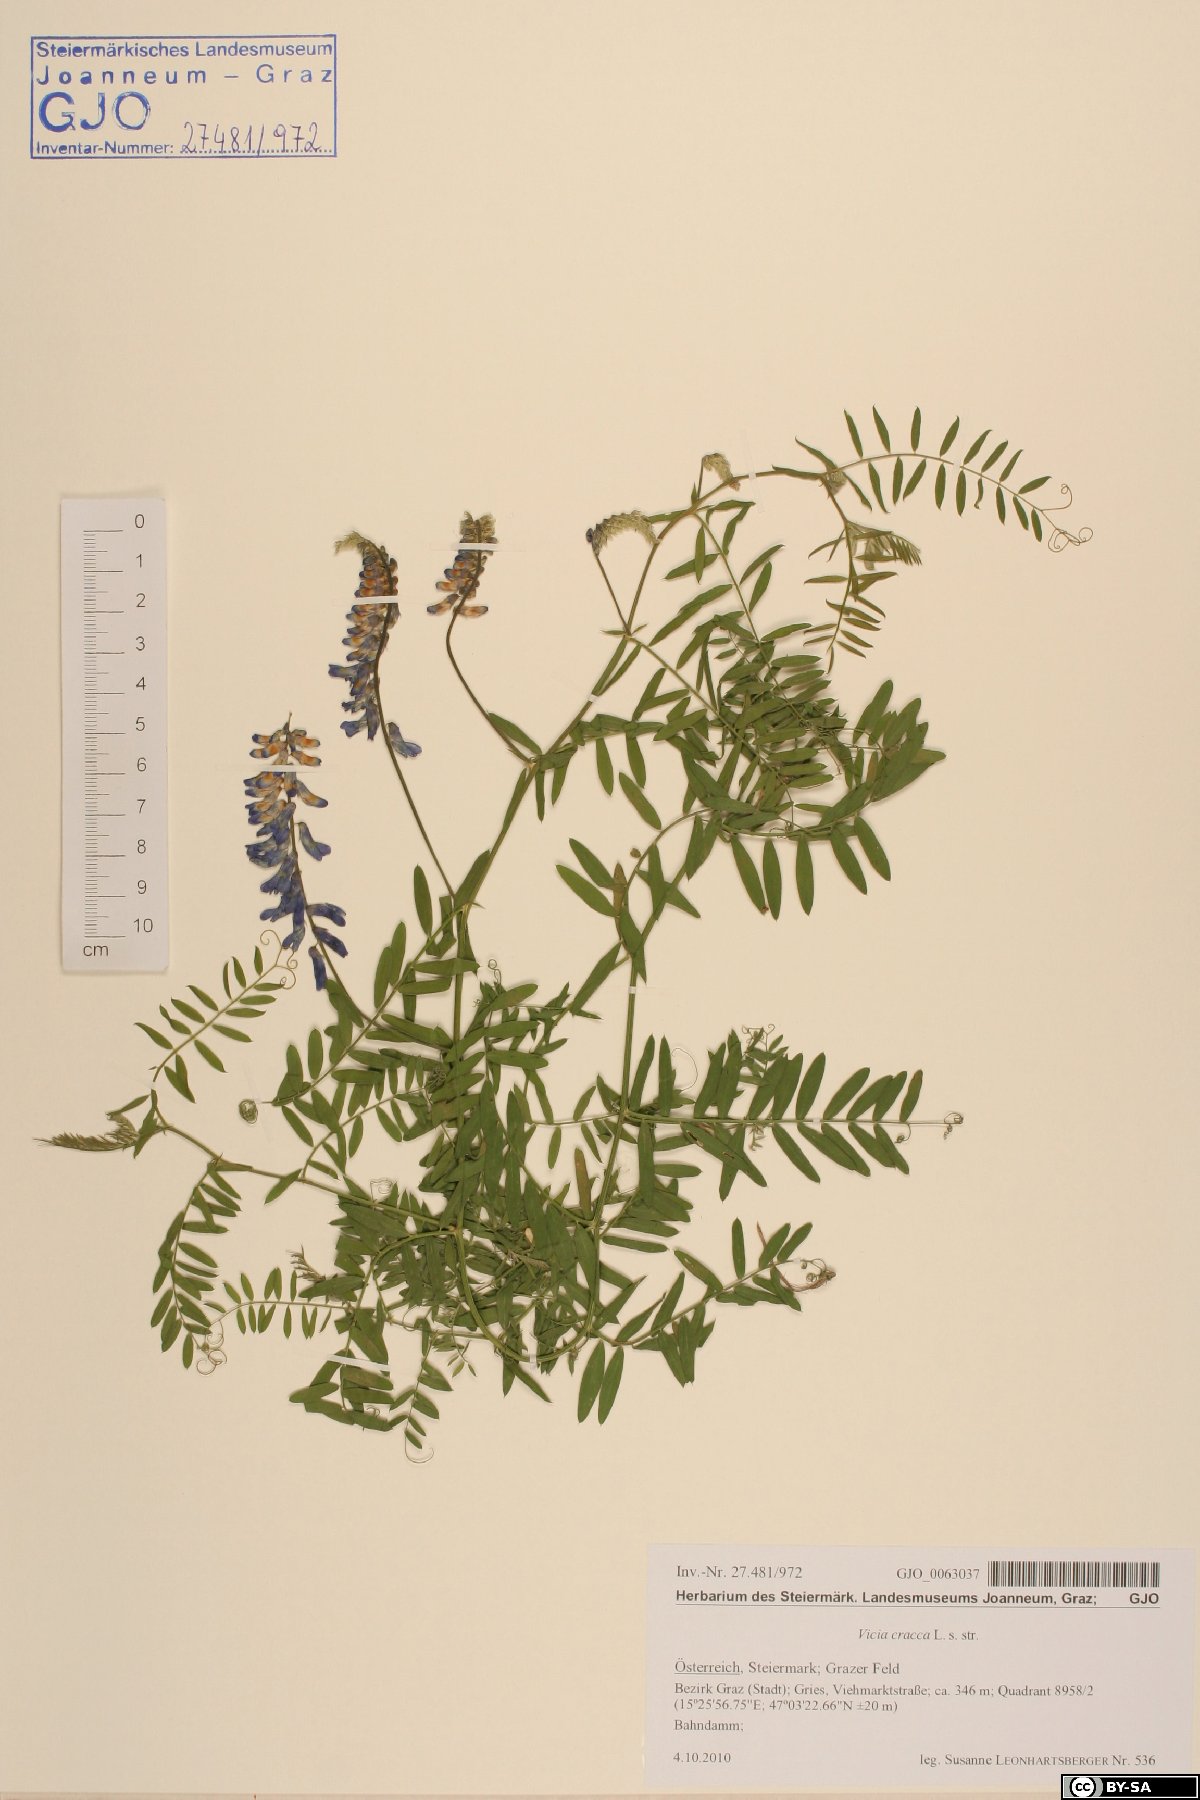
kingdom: Plantae
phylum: Tracheophyta
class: Magnoliopsida
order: Fabales
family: Fabaceae
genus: Vicia
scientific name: Vicia cracca
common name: Bird vetch
